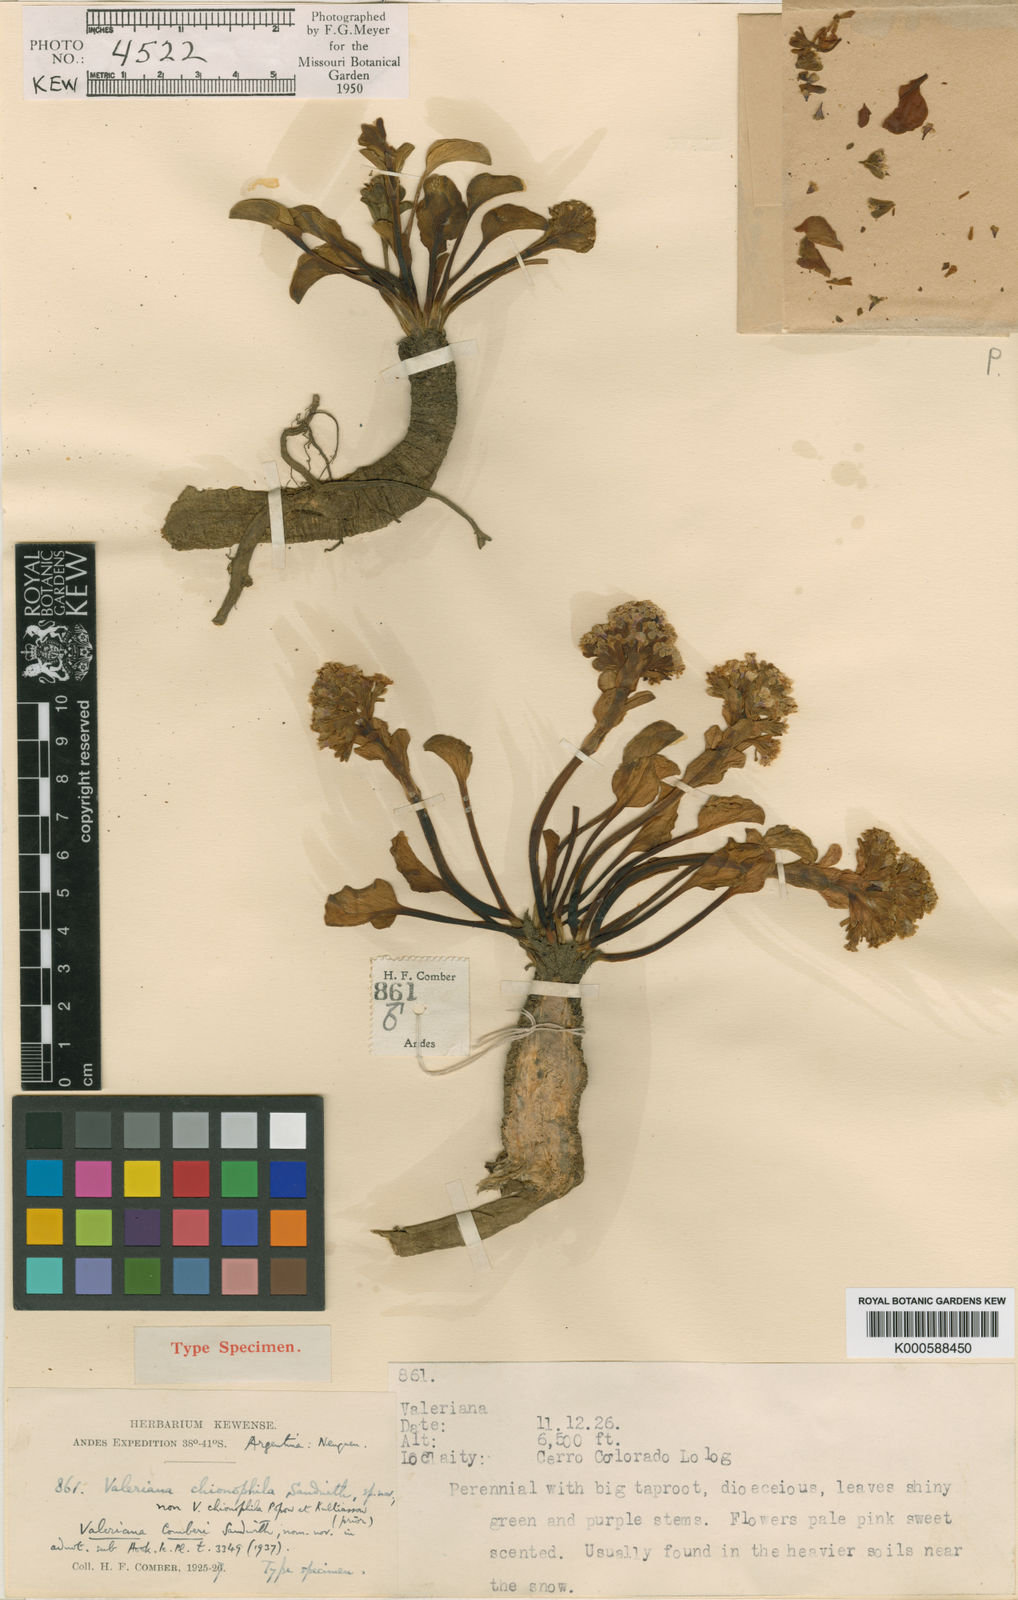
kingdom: Plantae
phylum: Tracheophyta
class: Magnoliopsida
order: Dipsacales
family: Caprifoliaceae
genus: Valeriana
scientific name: Valeriana comosa
